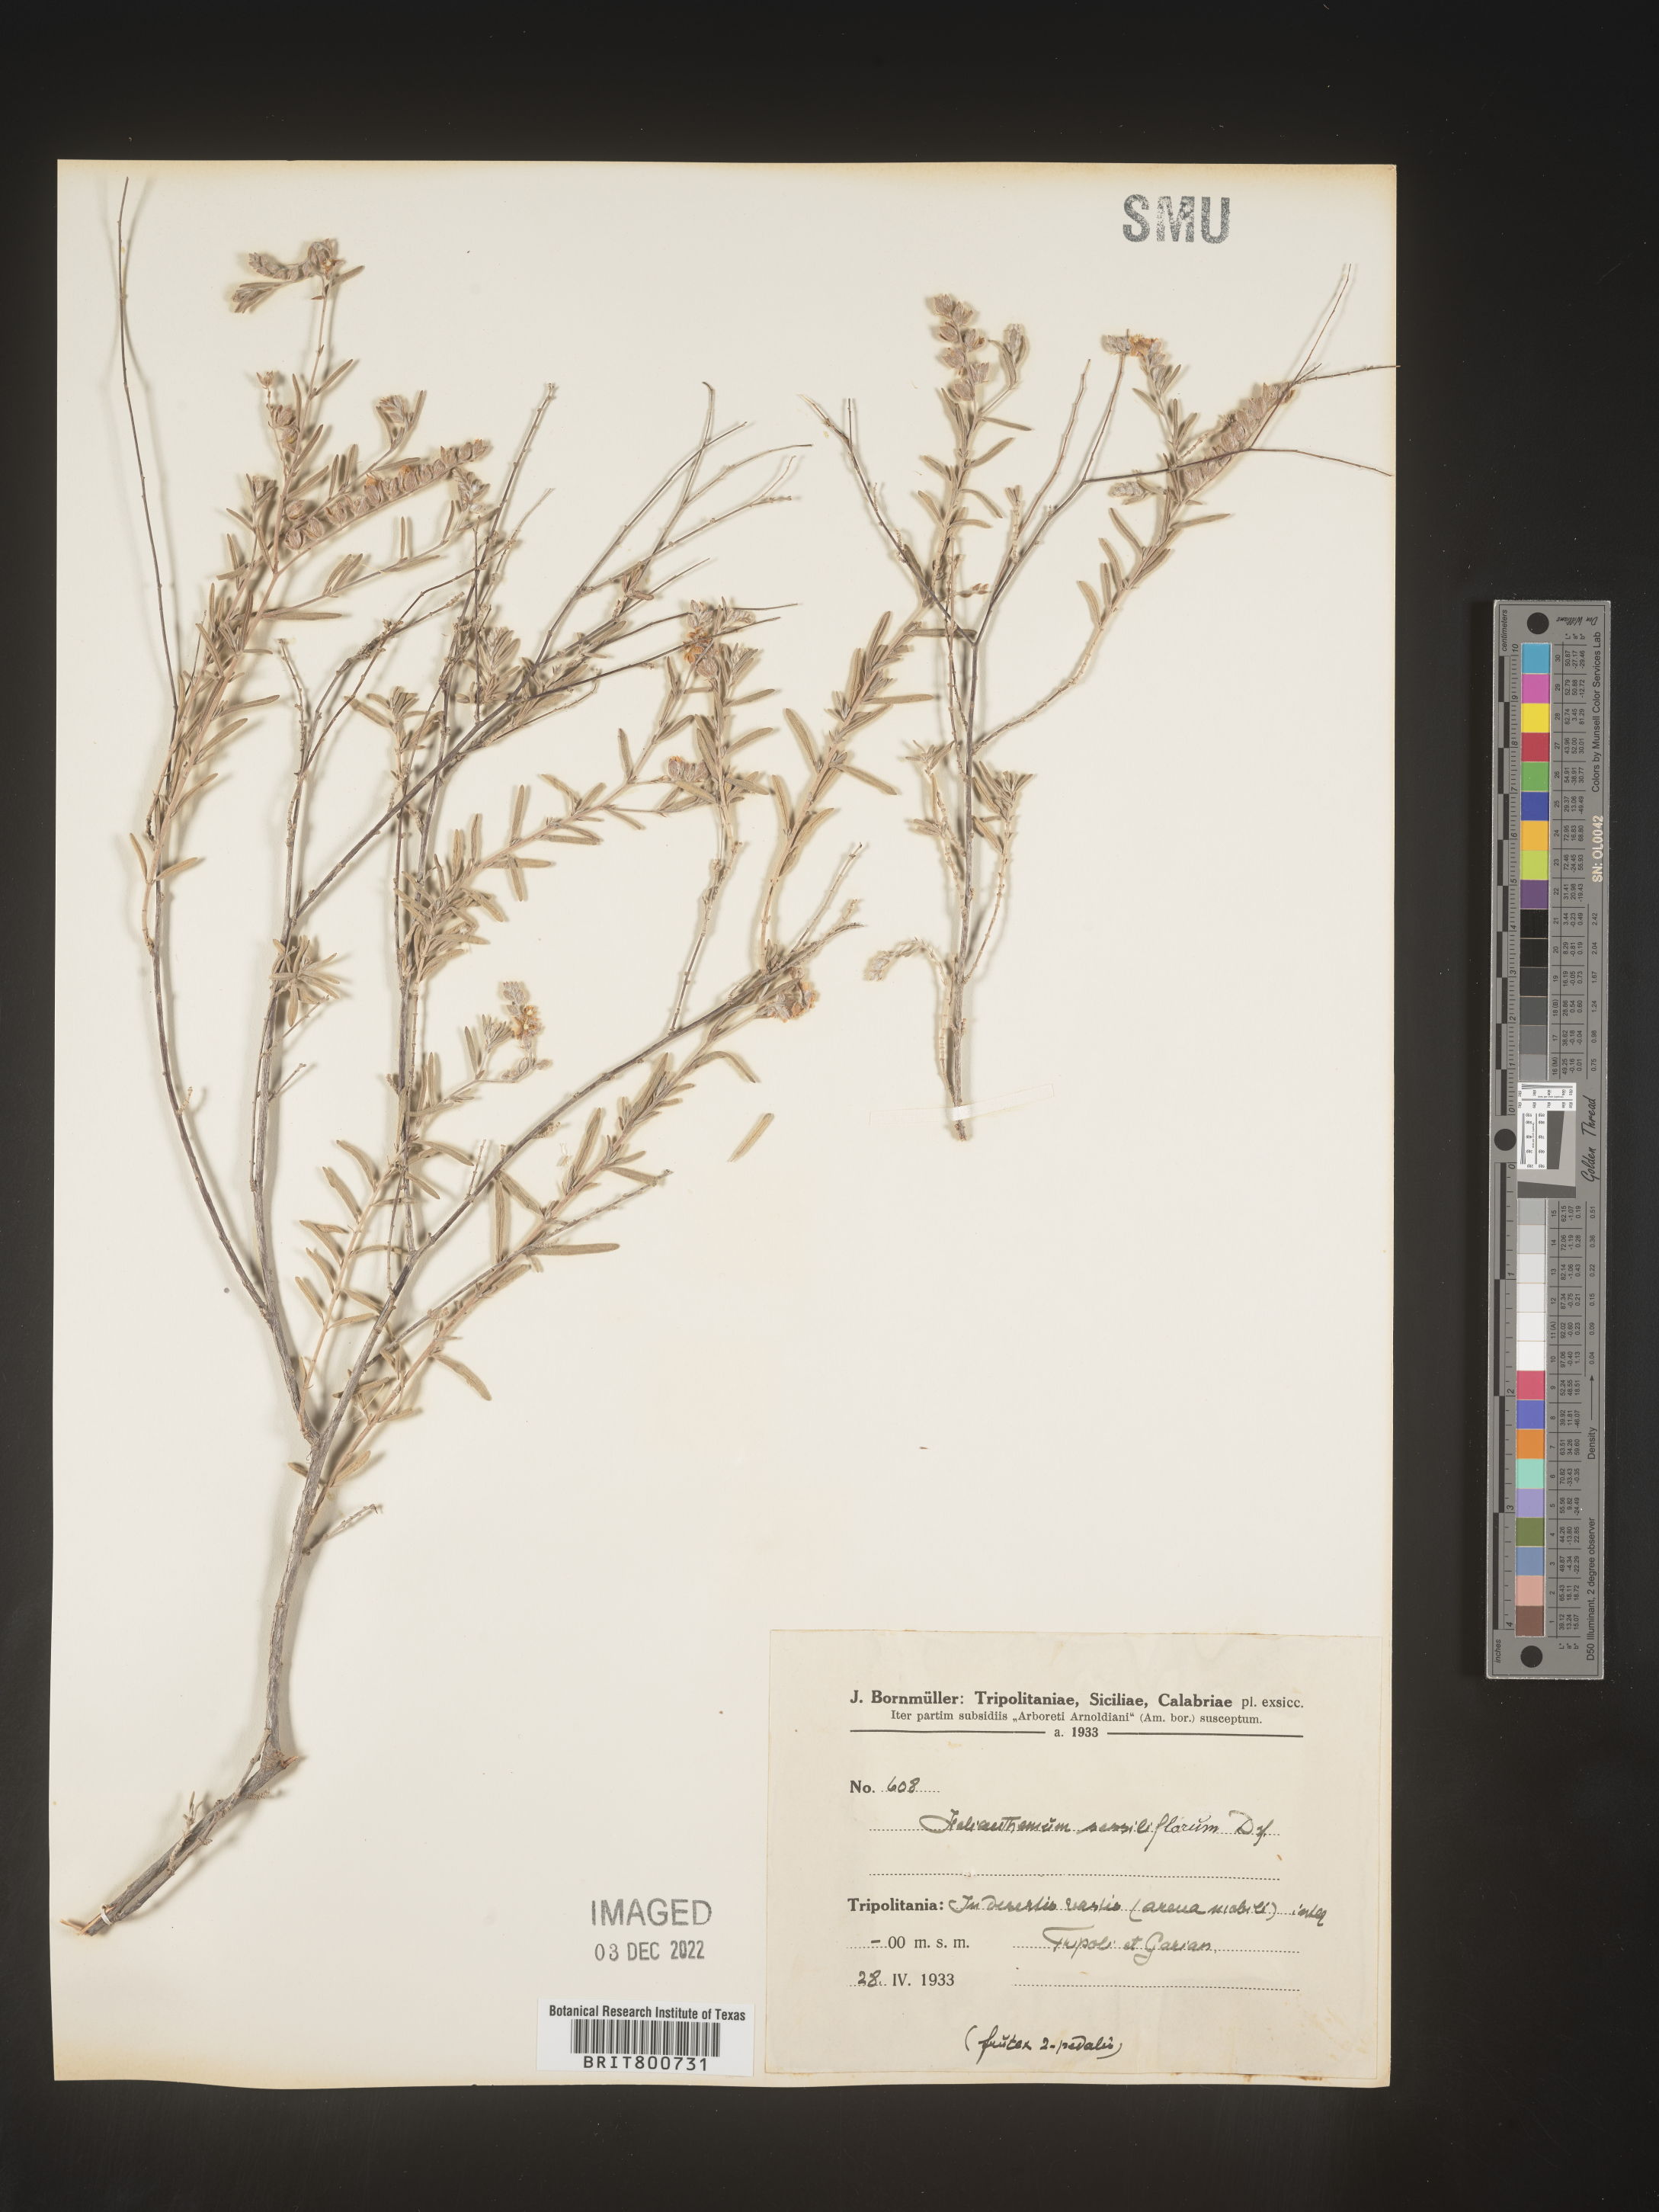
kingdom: Plantae
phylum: Tracheophyta
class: Magnoliopsida
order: Malvales
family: Cistaceae
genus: Helianthemum
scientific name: Helianthemum
